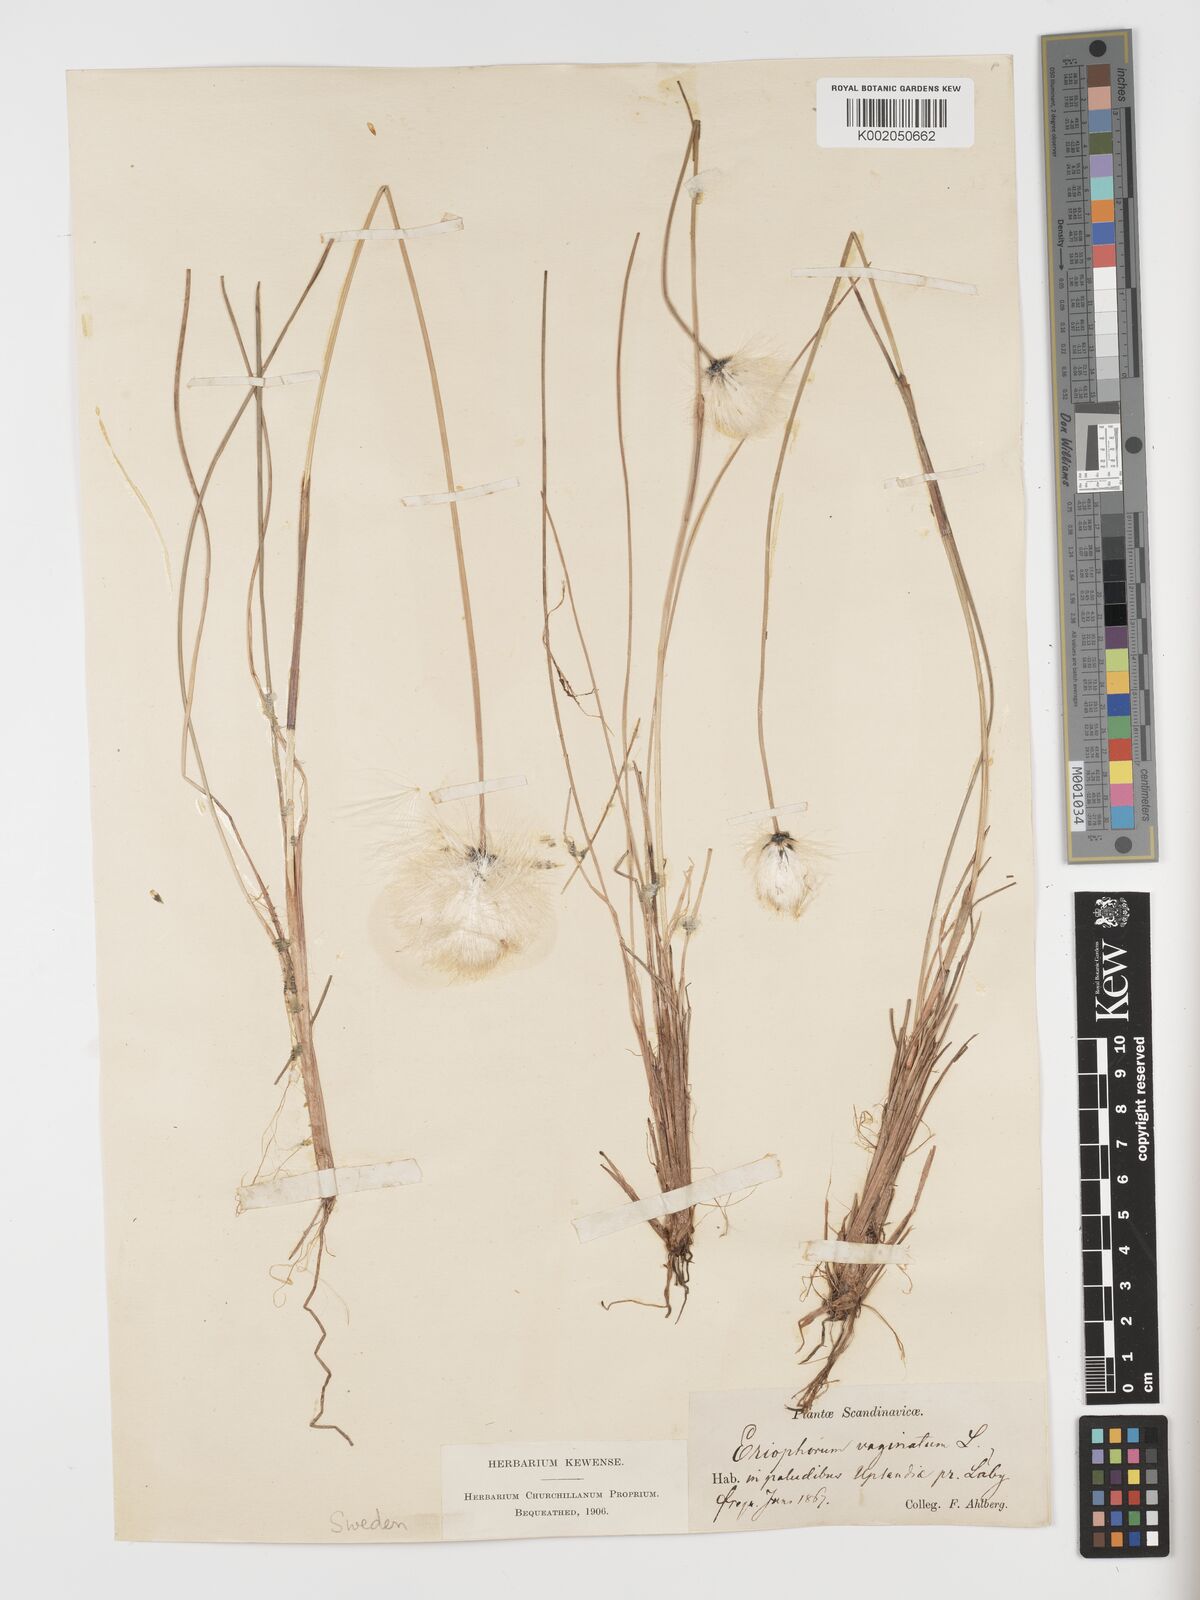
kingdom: Plantae
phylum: Tracheophyta
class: Liliopsida
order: Poales
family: Cyperaceae
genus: Eriophorum
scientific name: Eriophorum vaginatum
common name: Hare's-tail cottongrass
